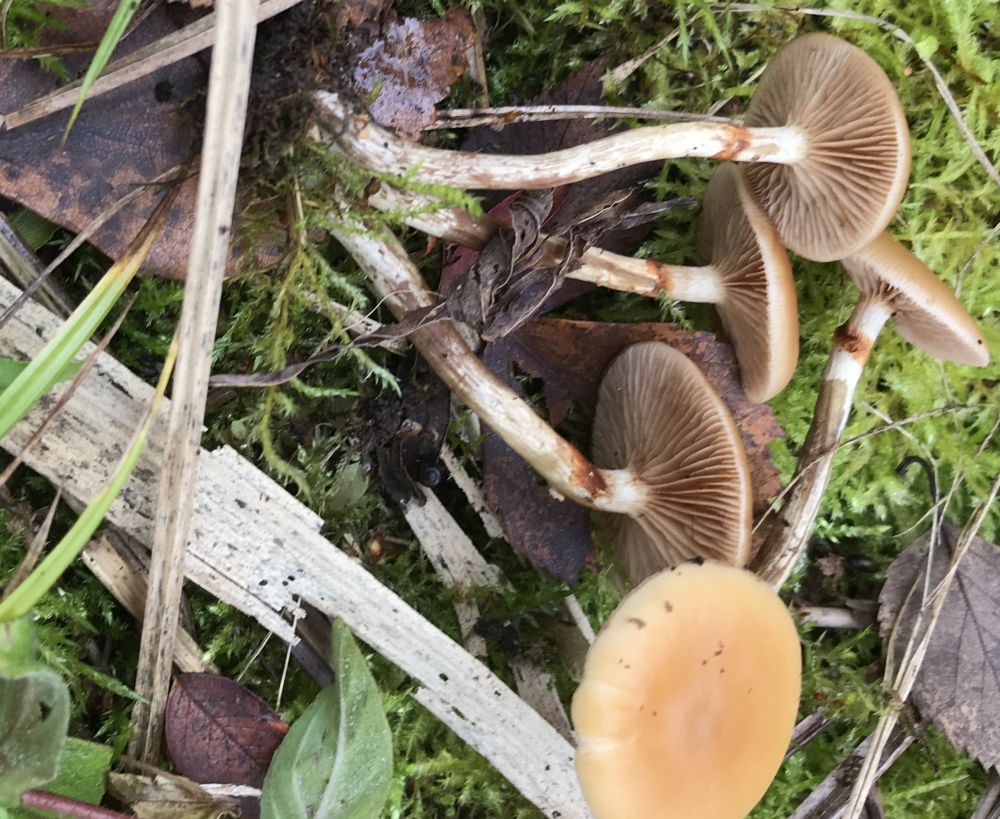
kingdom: Fungi
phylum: Basidiomycota
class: Agaricomycetes
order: Agaricales
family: Hymenogastraceae
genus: Galerina
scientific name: Galerina marginata
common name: randbæltet hjelmhat
